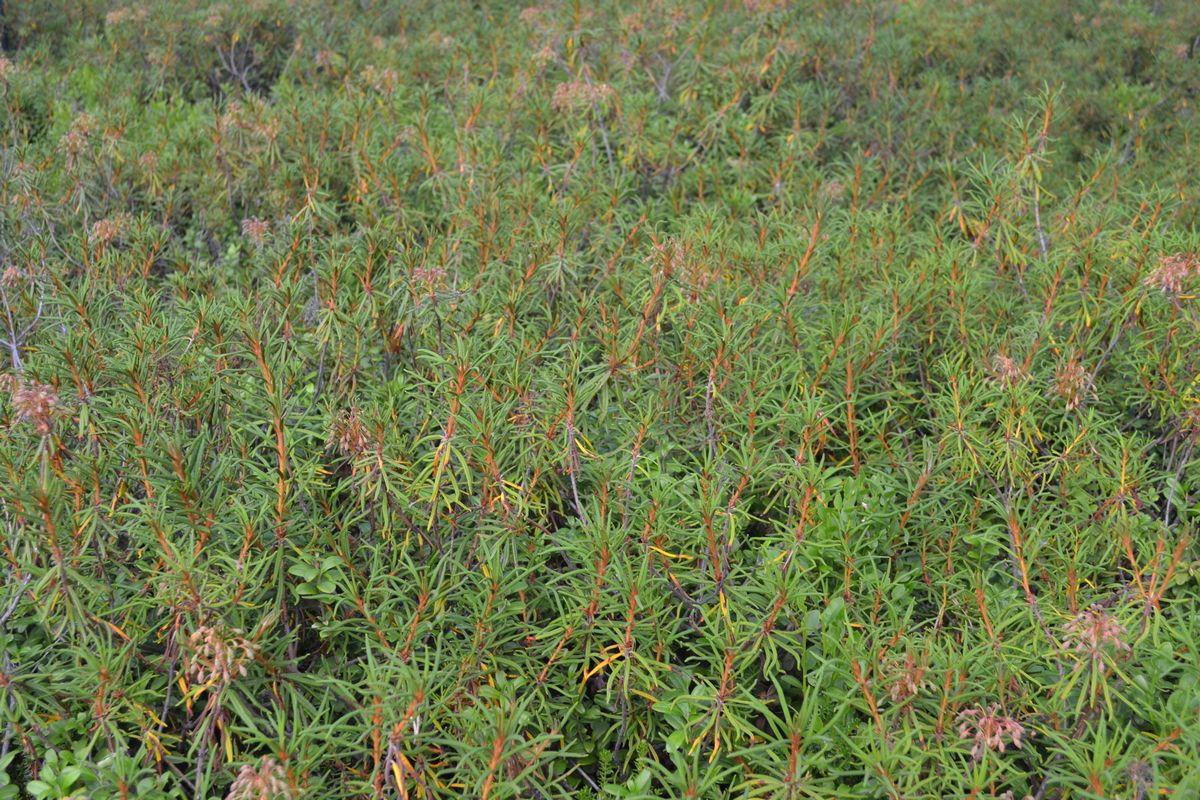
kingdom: Plantae
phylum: Tracheophyta
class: Magnoliopsida
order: Ericales
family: Ericaceae
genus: Rhododendron
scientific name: Rhododendron tomentosum
